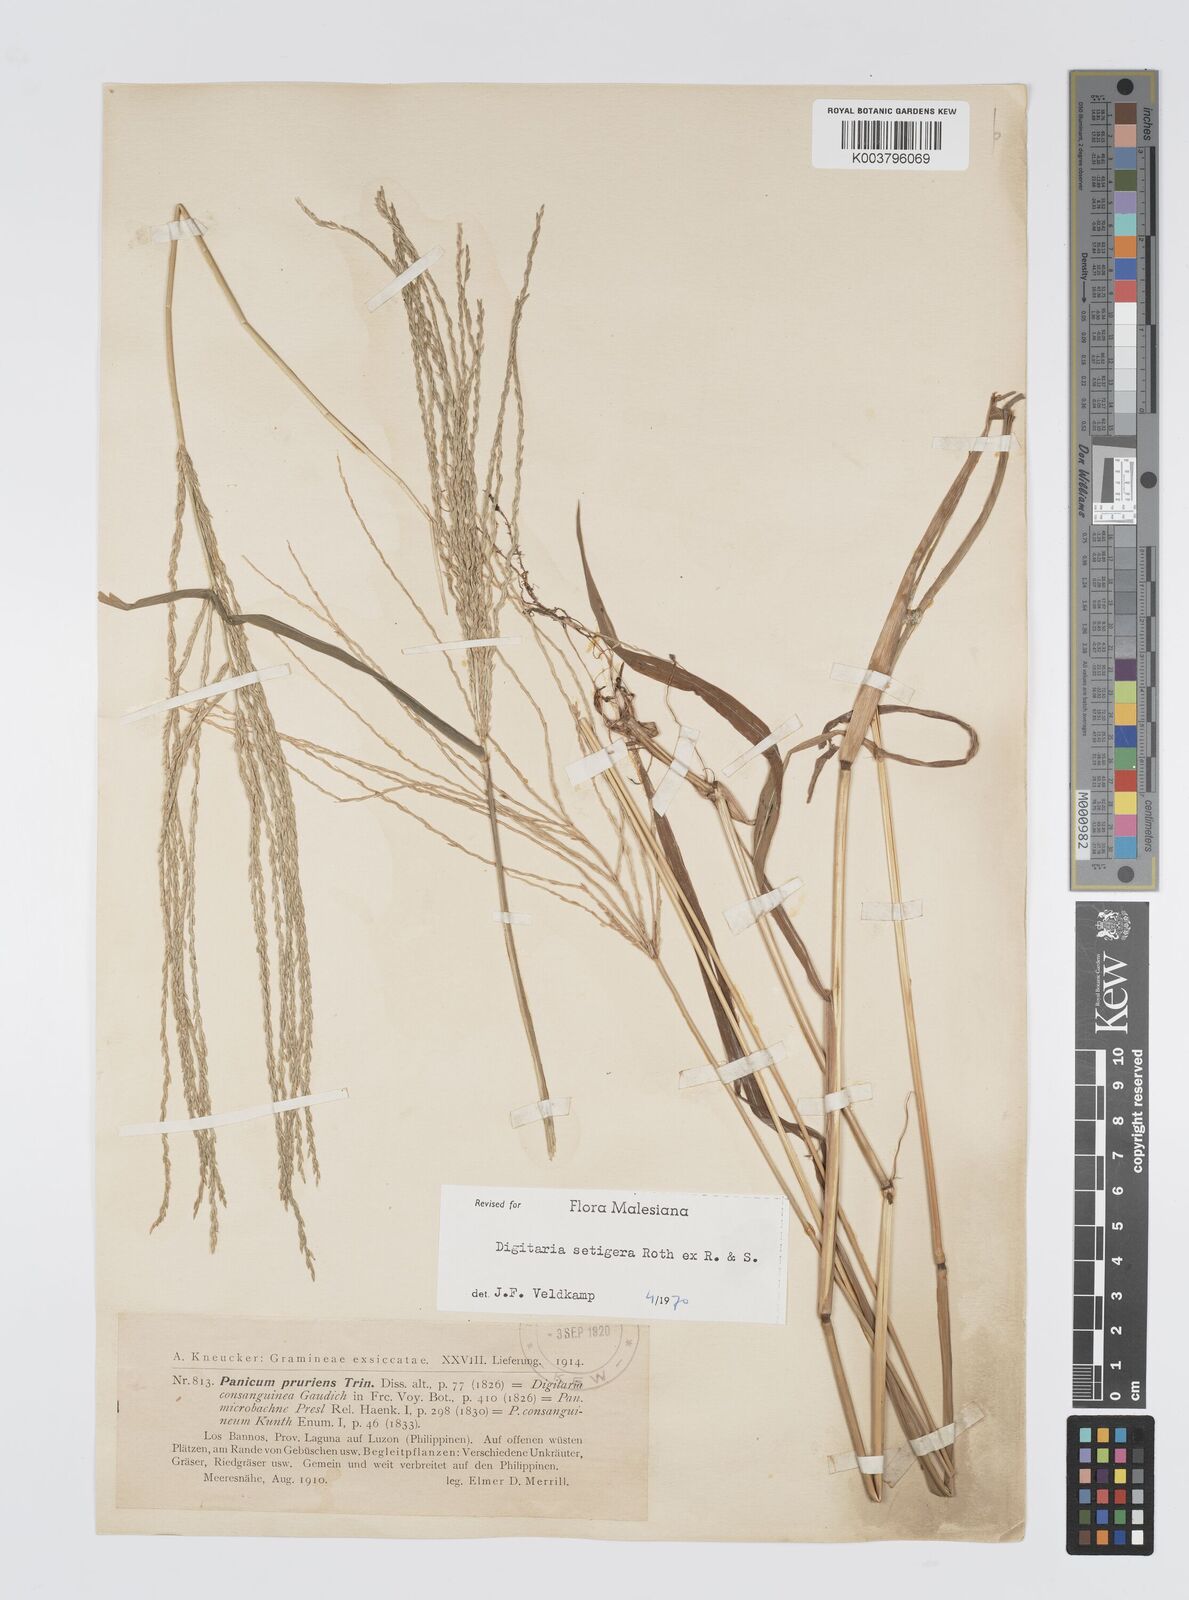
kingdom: Plantae
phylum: Tracheophyta
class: Liliopsida
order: Poales
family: Poaceae
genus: Digitaria
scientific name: Digitaria setigera
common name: East indian crabgrass
